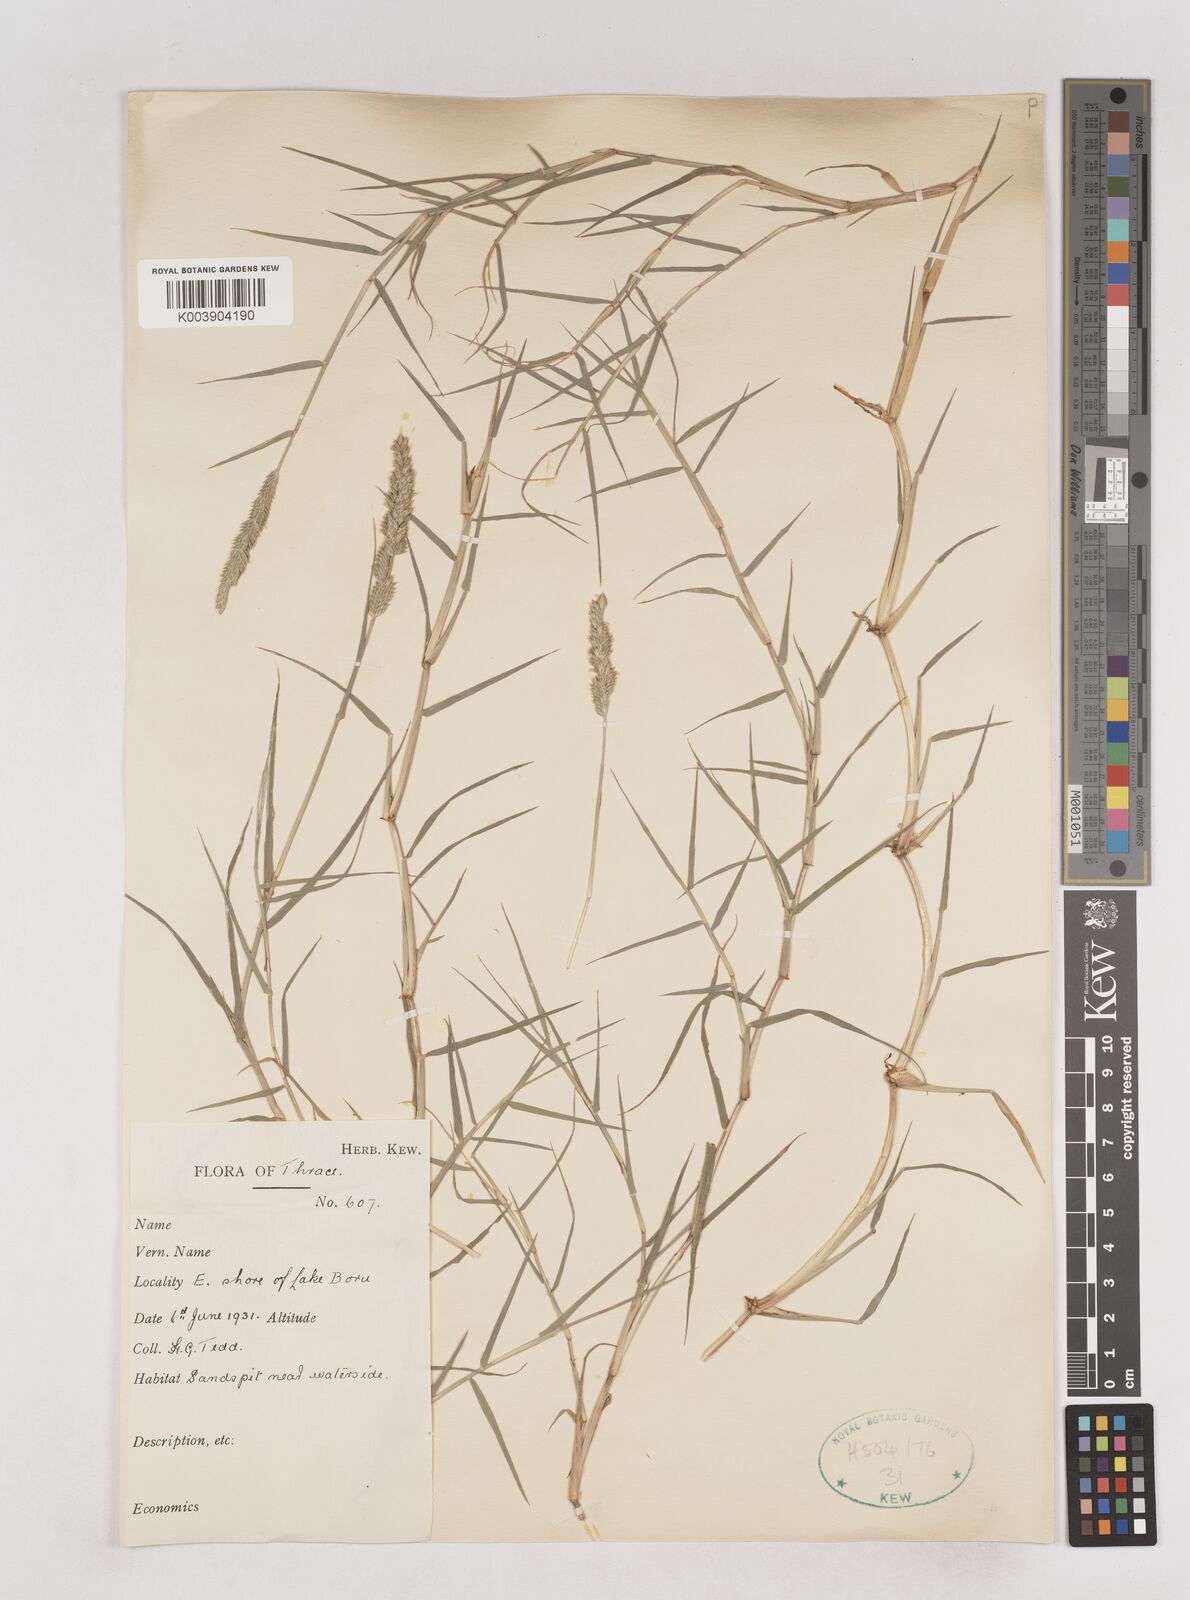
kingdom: Plantae
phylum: Tracheophyta
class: Liliopsida
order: Poales
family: Poaceae
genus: Aeluropus
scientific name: Aeluropus littoralis
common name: Indian walnut
